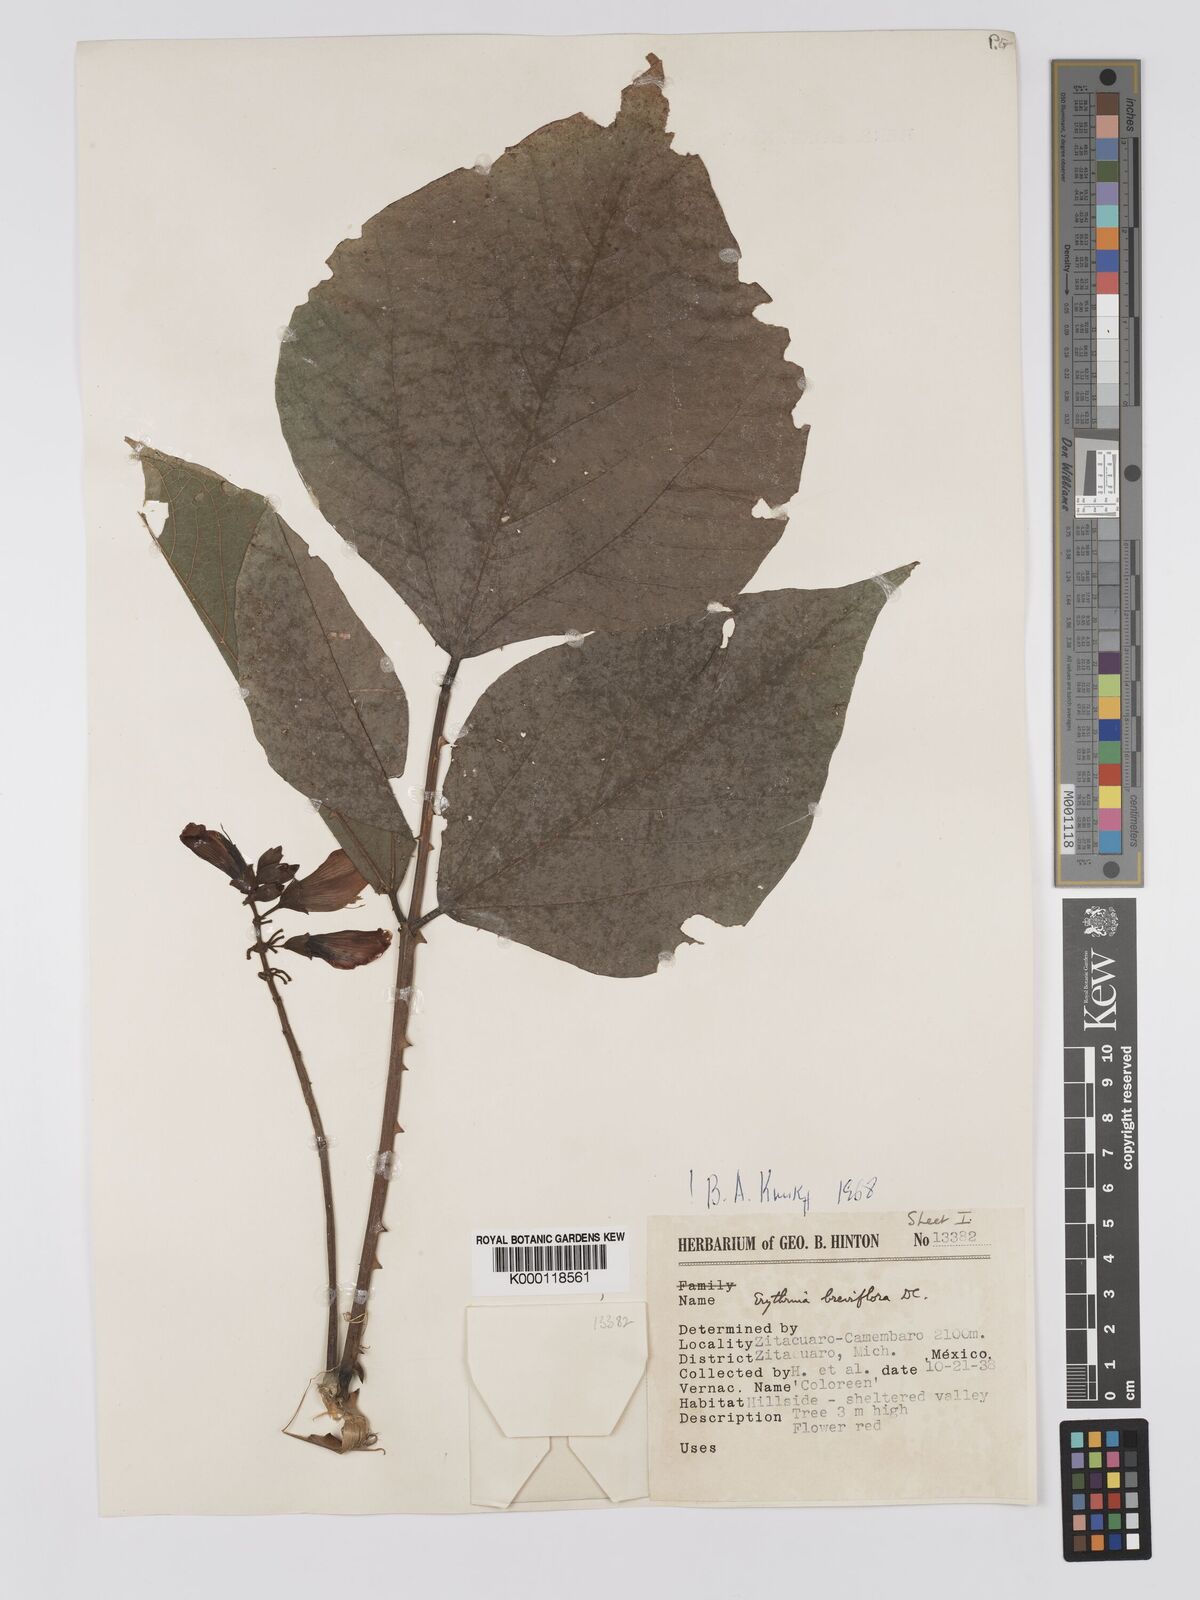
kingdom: Plantae
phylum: Tracheophyta
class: Magnoliopsida
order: Fabales
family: Fabaceae
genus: Erythrina
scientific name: Erythrina breviflora
